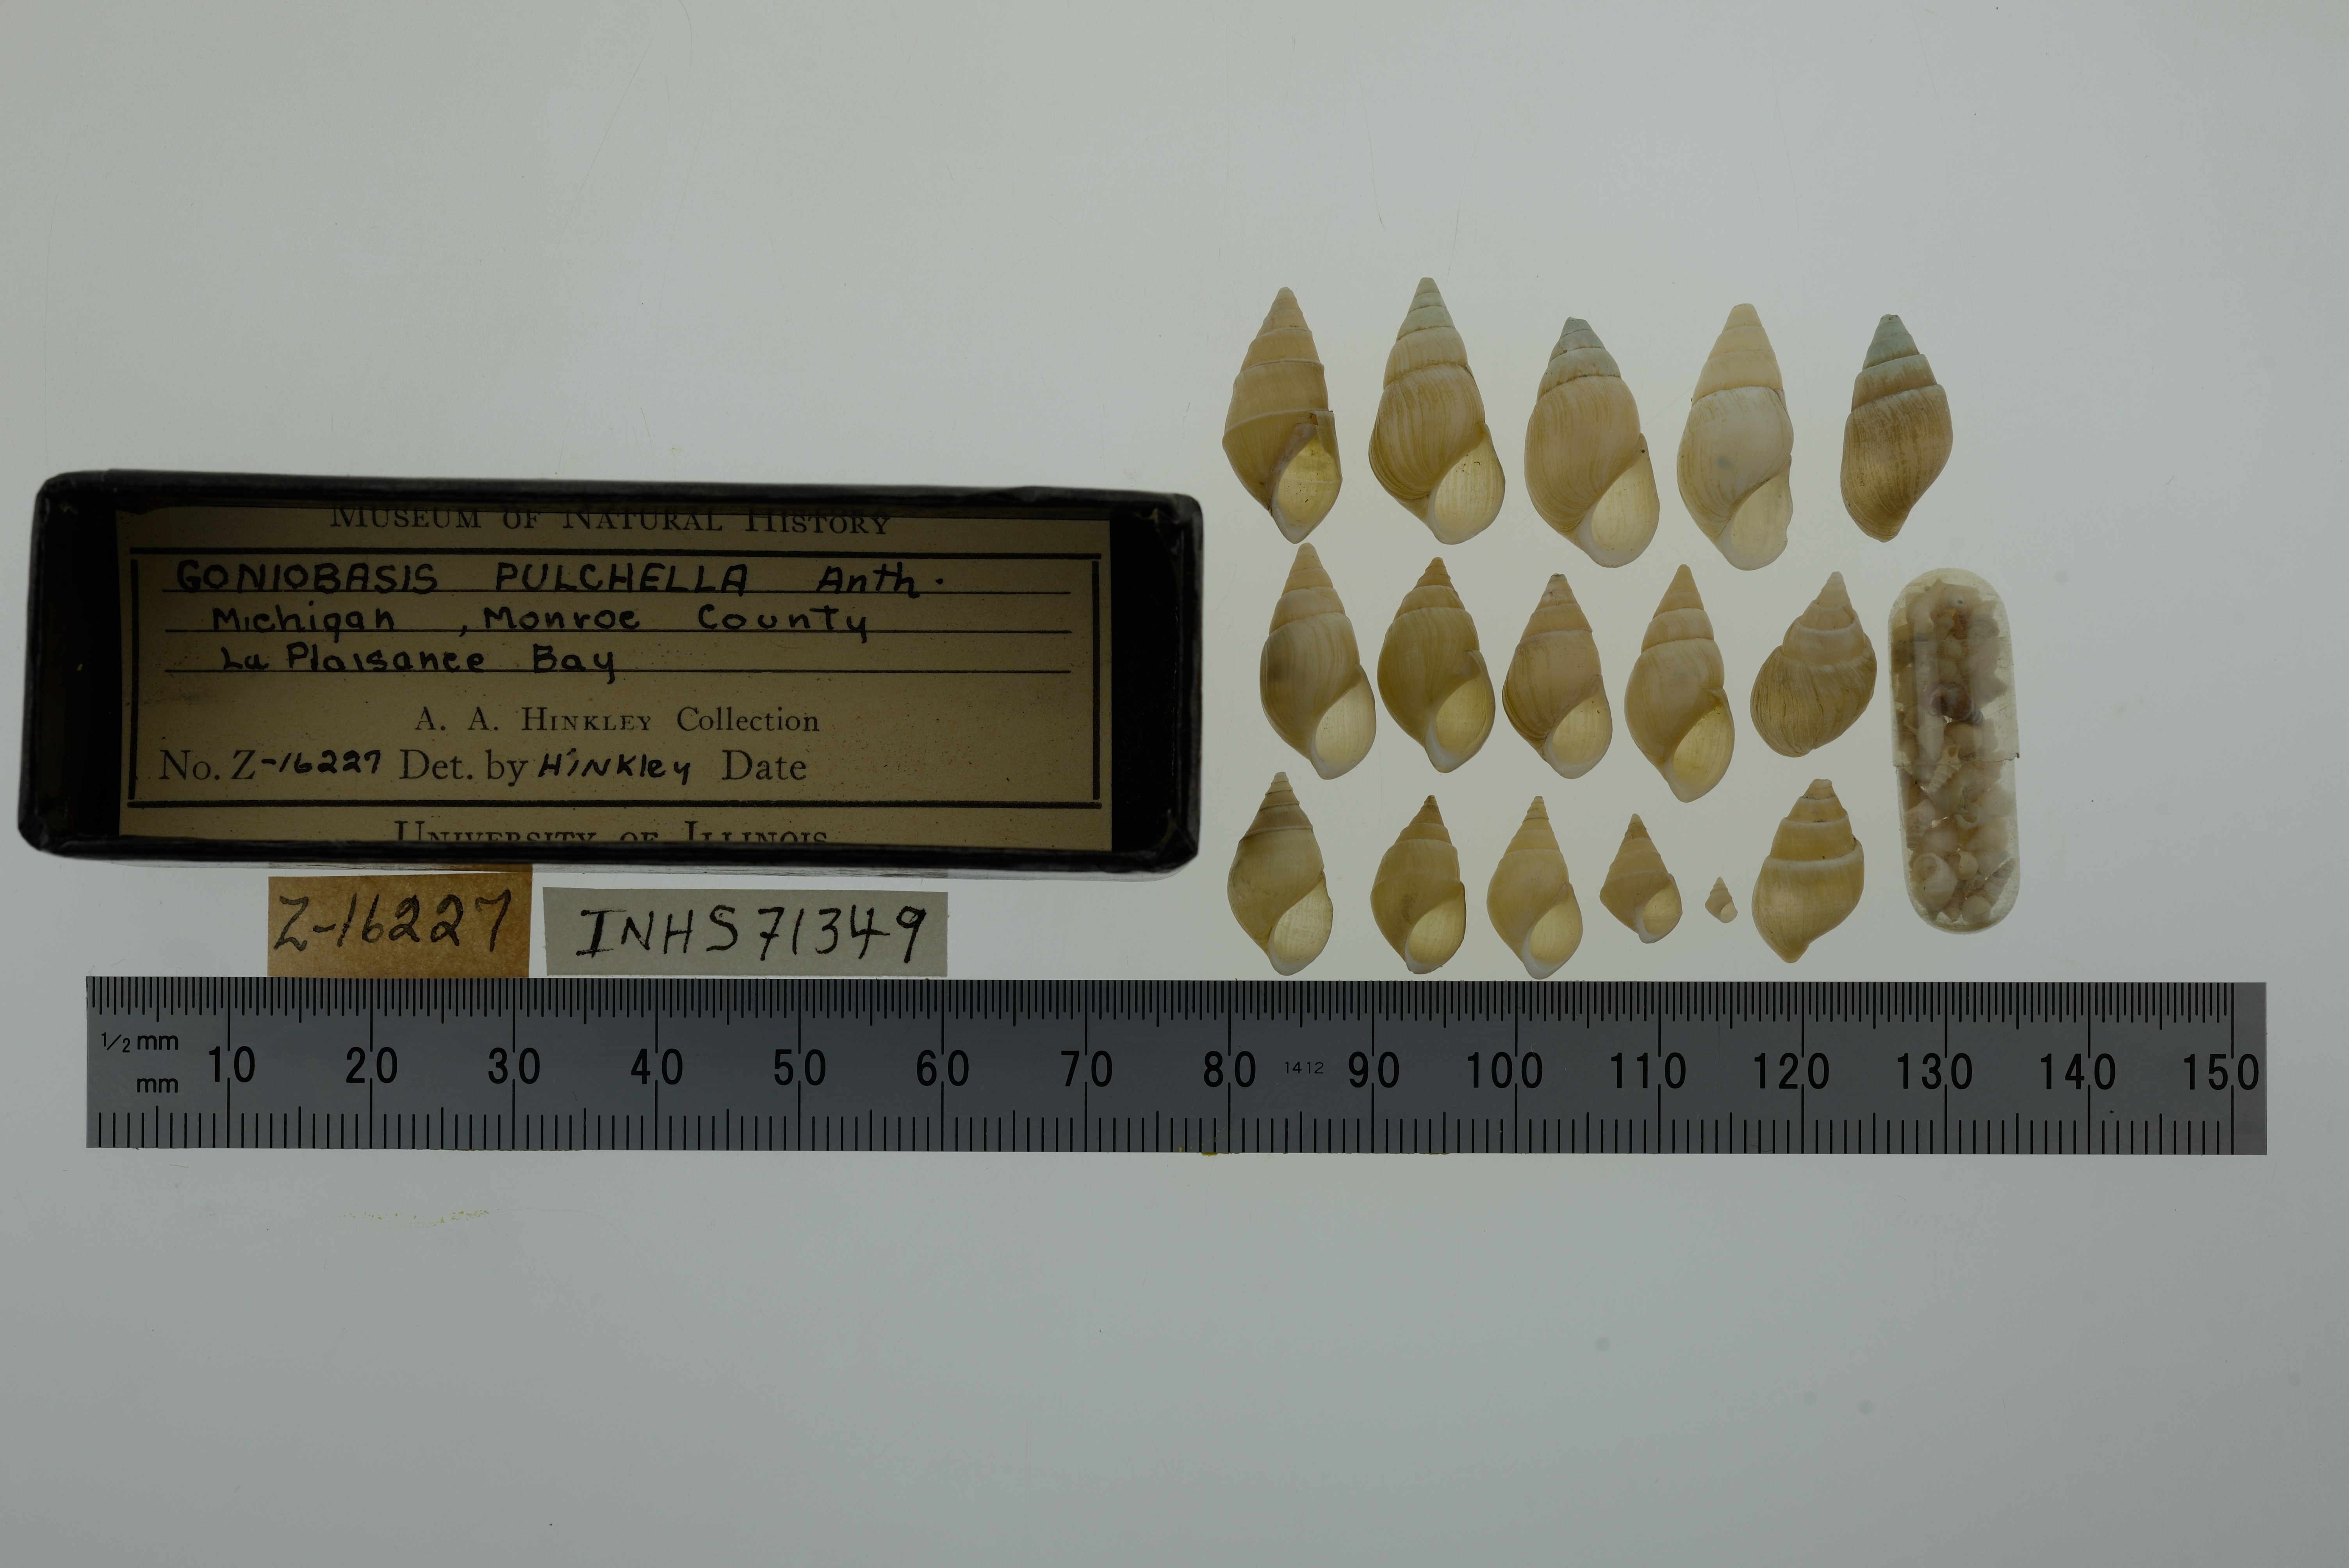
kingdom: Animalia
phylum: Mollusca
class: Gastropoda
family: Pleuroceridae
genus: Elimia
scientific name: Elimia livescens
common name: Liver elimia
